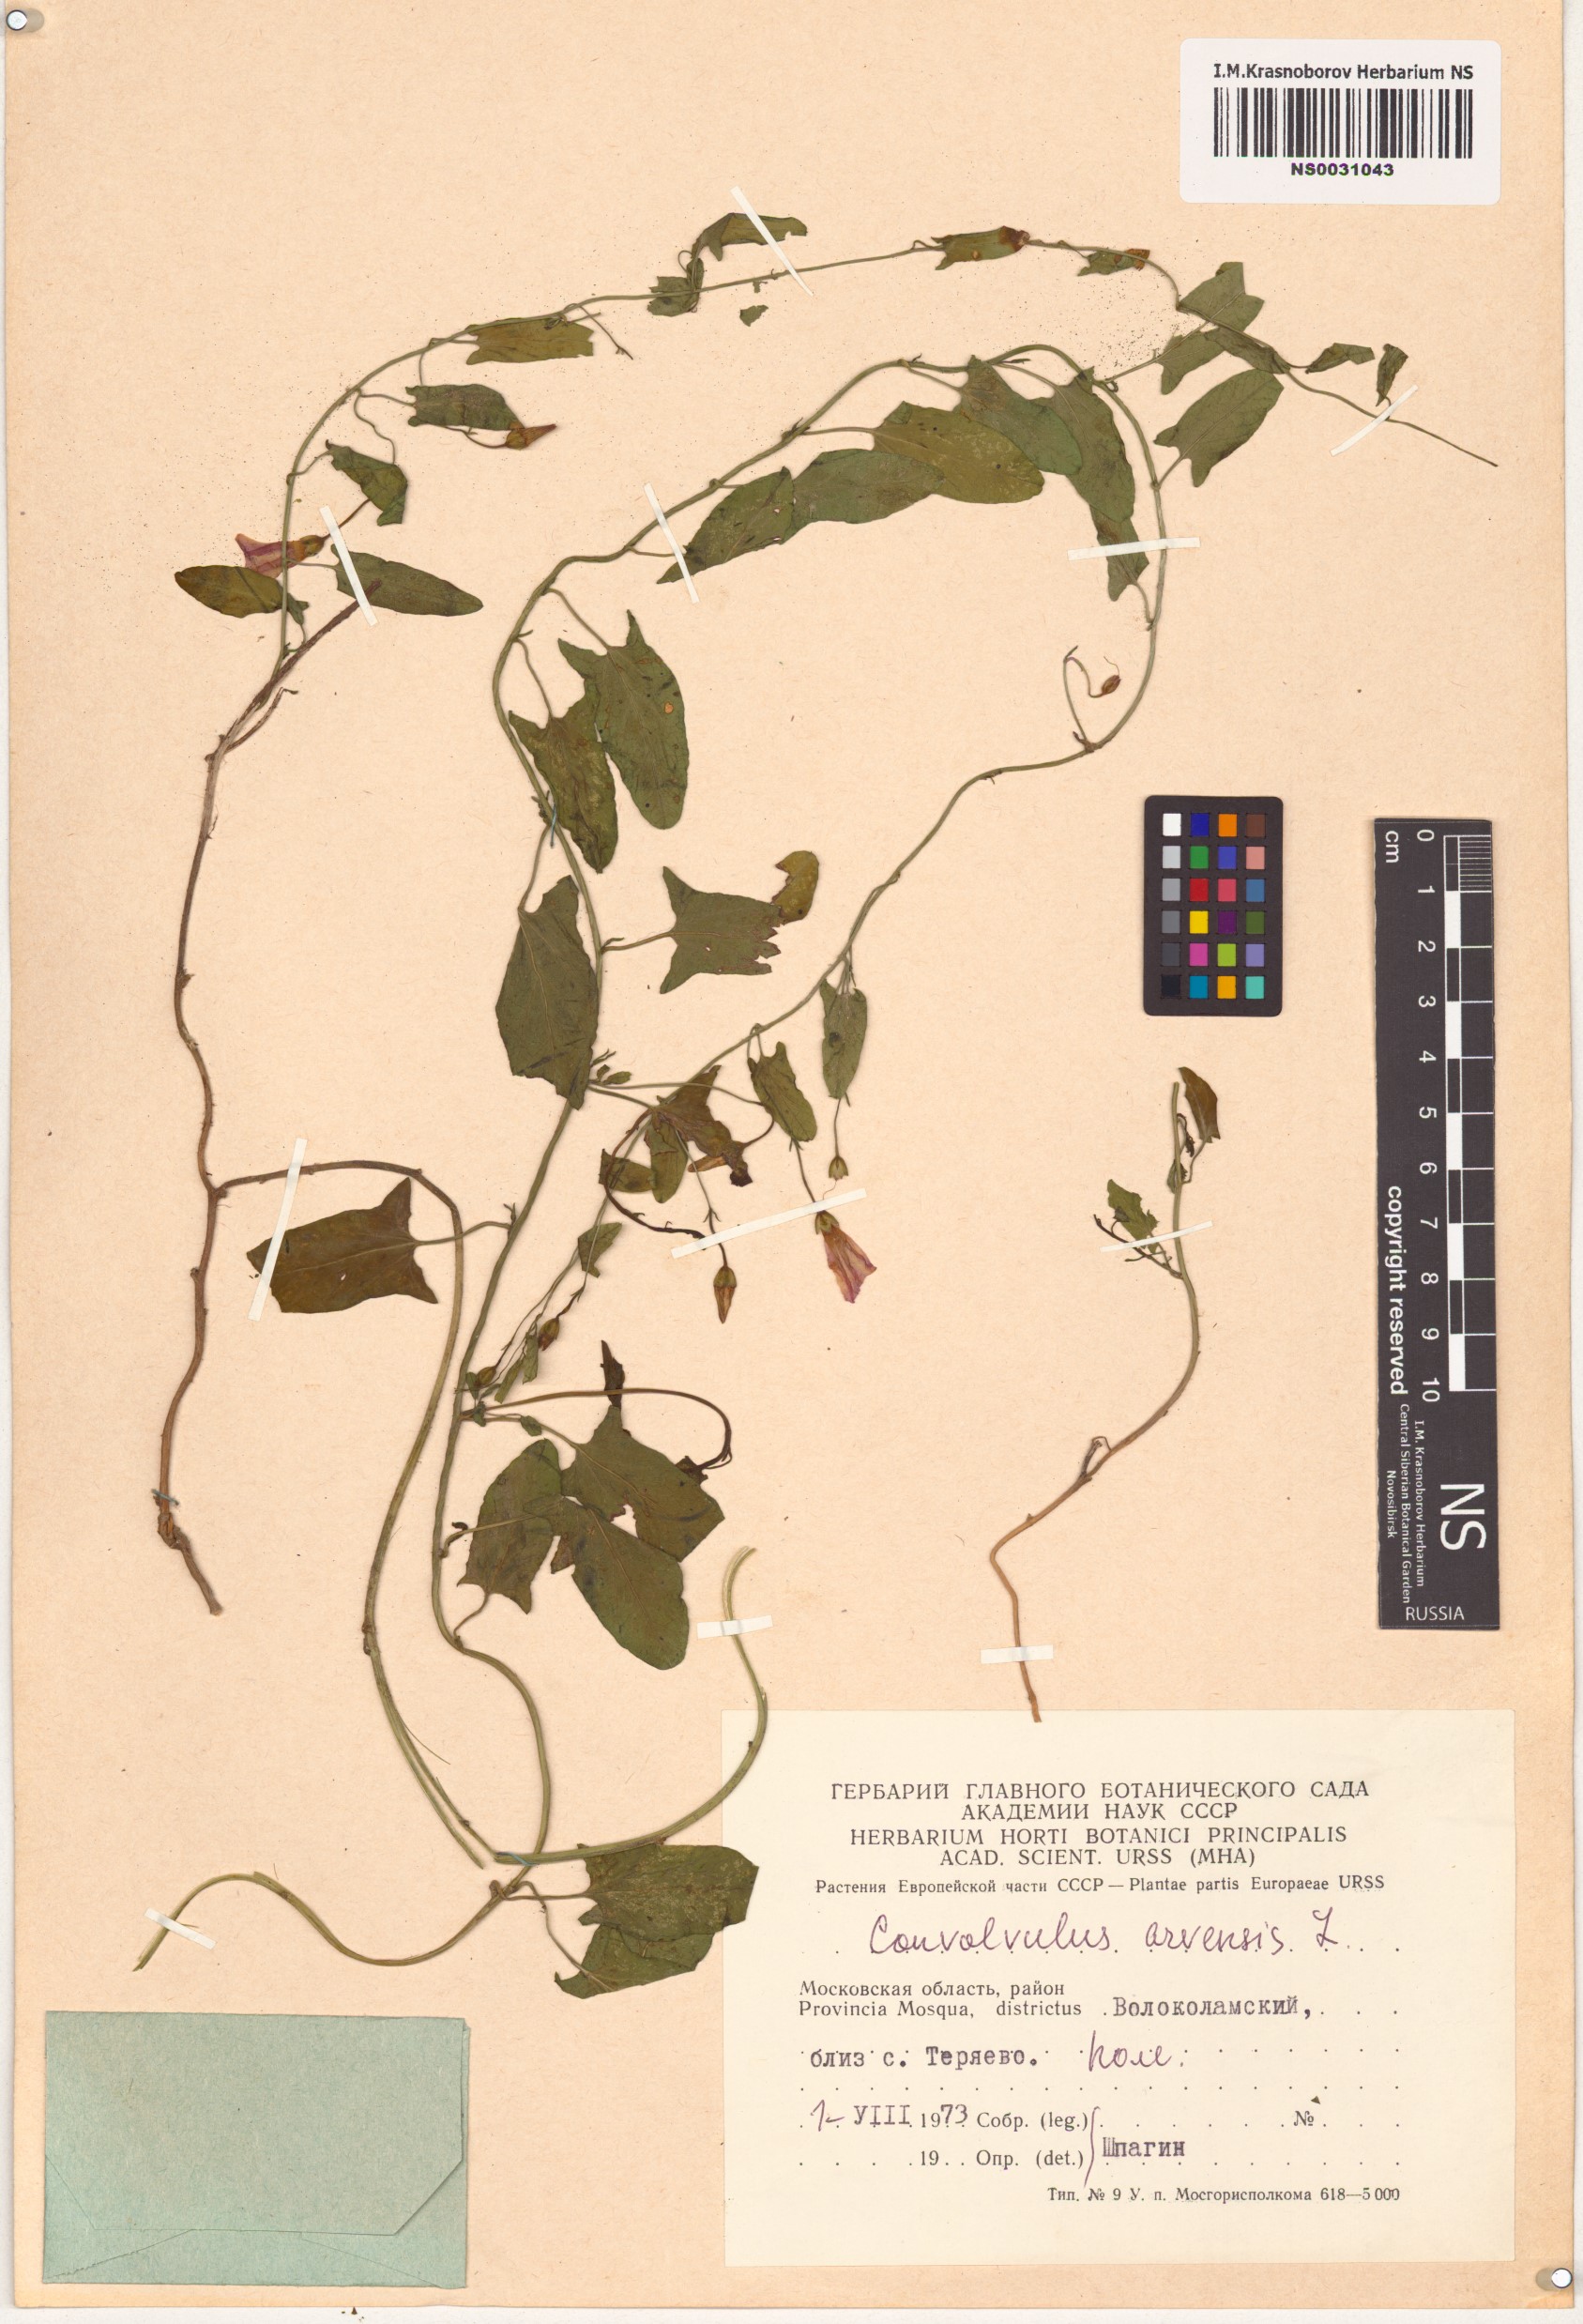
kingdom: Plantae
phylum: Tracheophyta
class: Magnoliopsida
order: Solanales
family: Convolvulaceae
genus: Convolvulus
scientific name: Convolvulus arvensis
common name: Field bindweed
